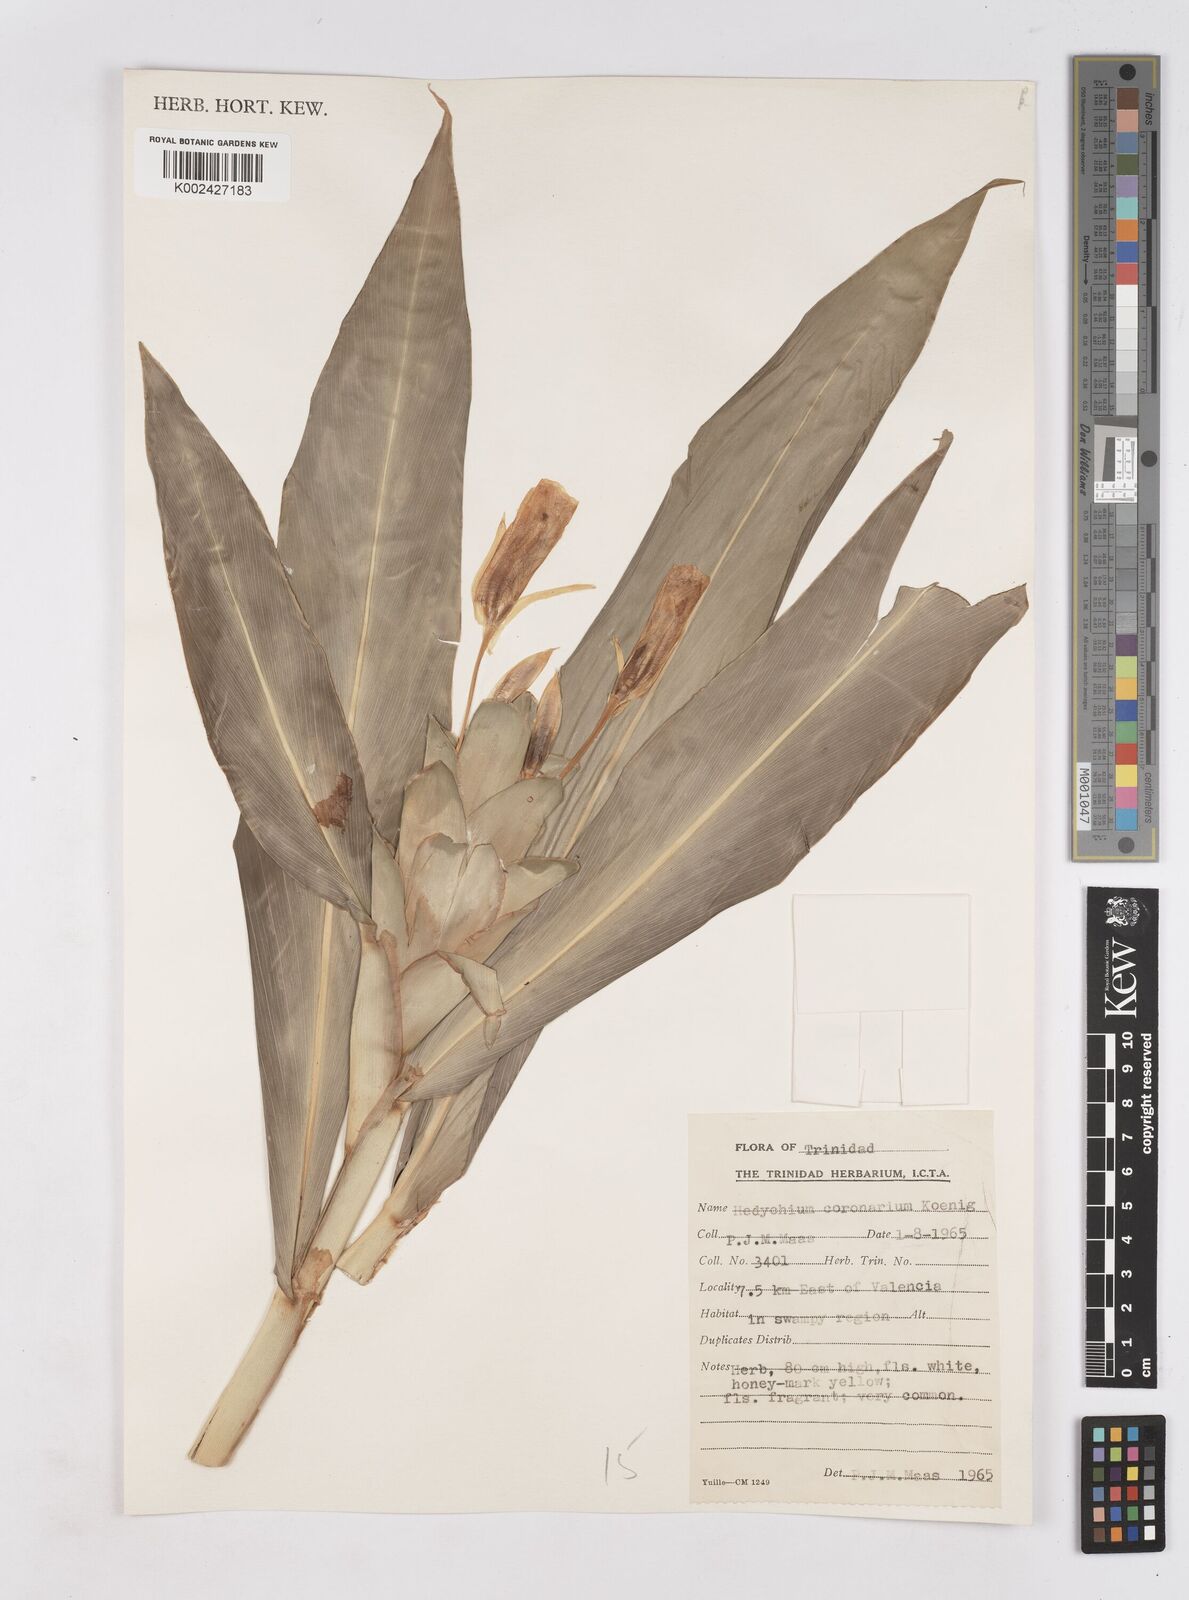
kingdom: Plantae
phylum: Tracheophyta
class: Liliopsida
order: Zingiberales
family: Zingiberaceae
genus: Hedychium
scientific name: Hedychium coronarium
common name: White garland-lily
